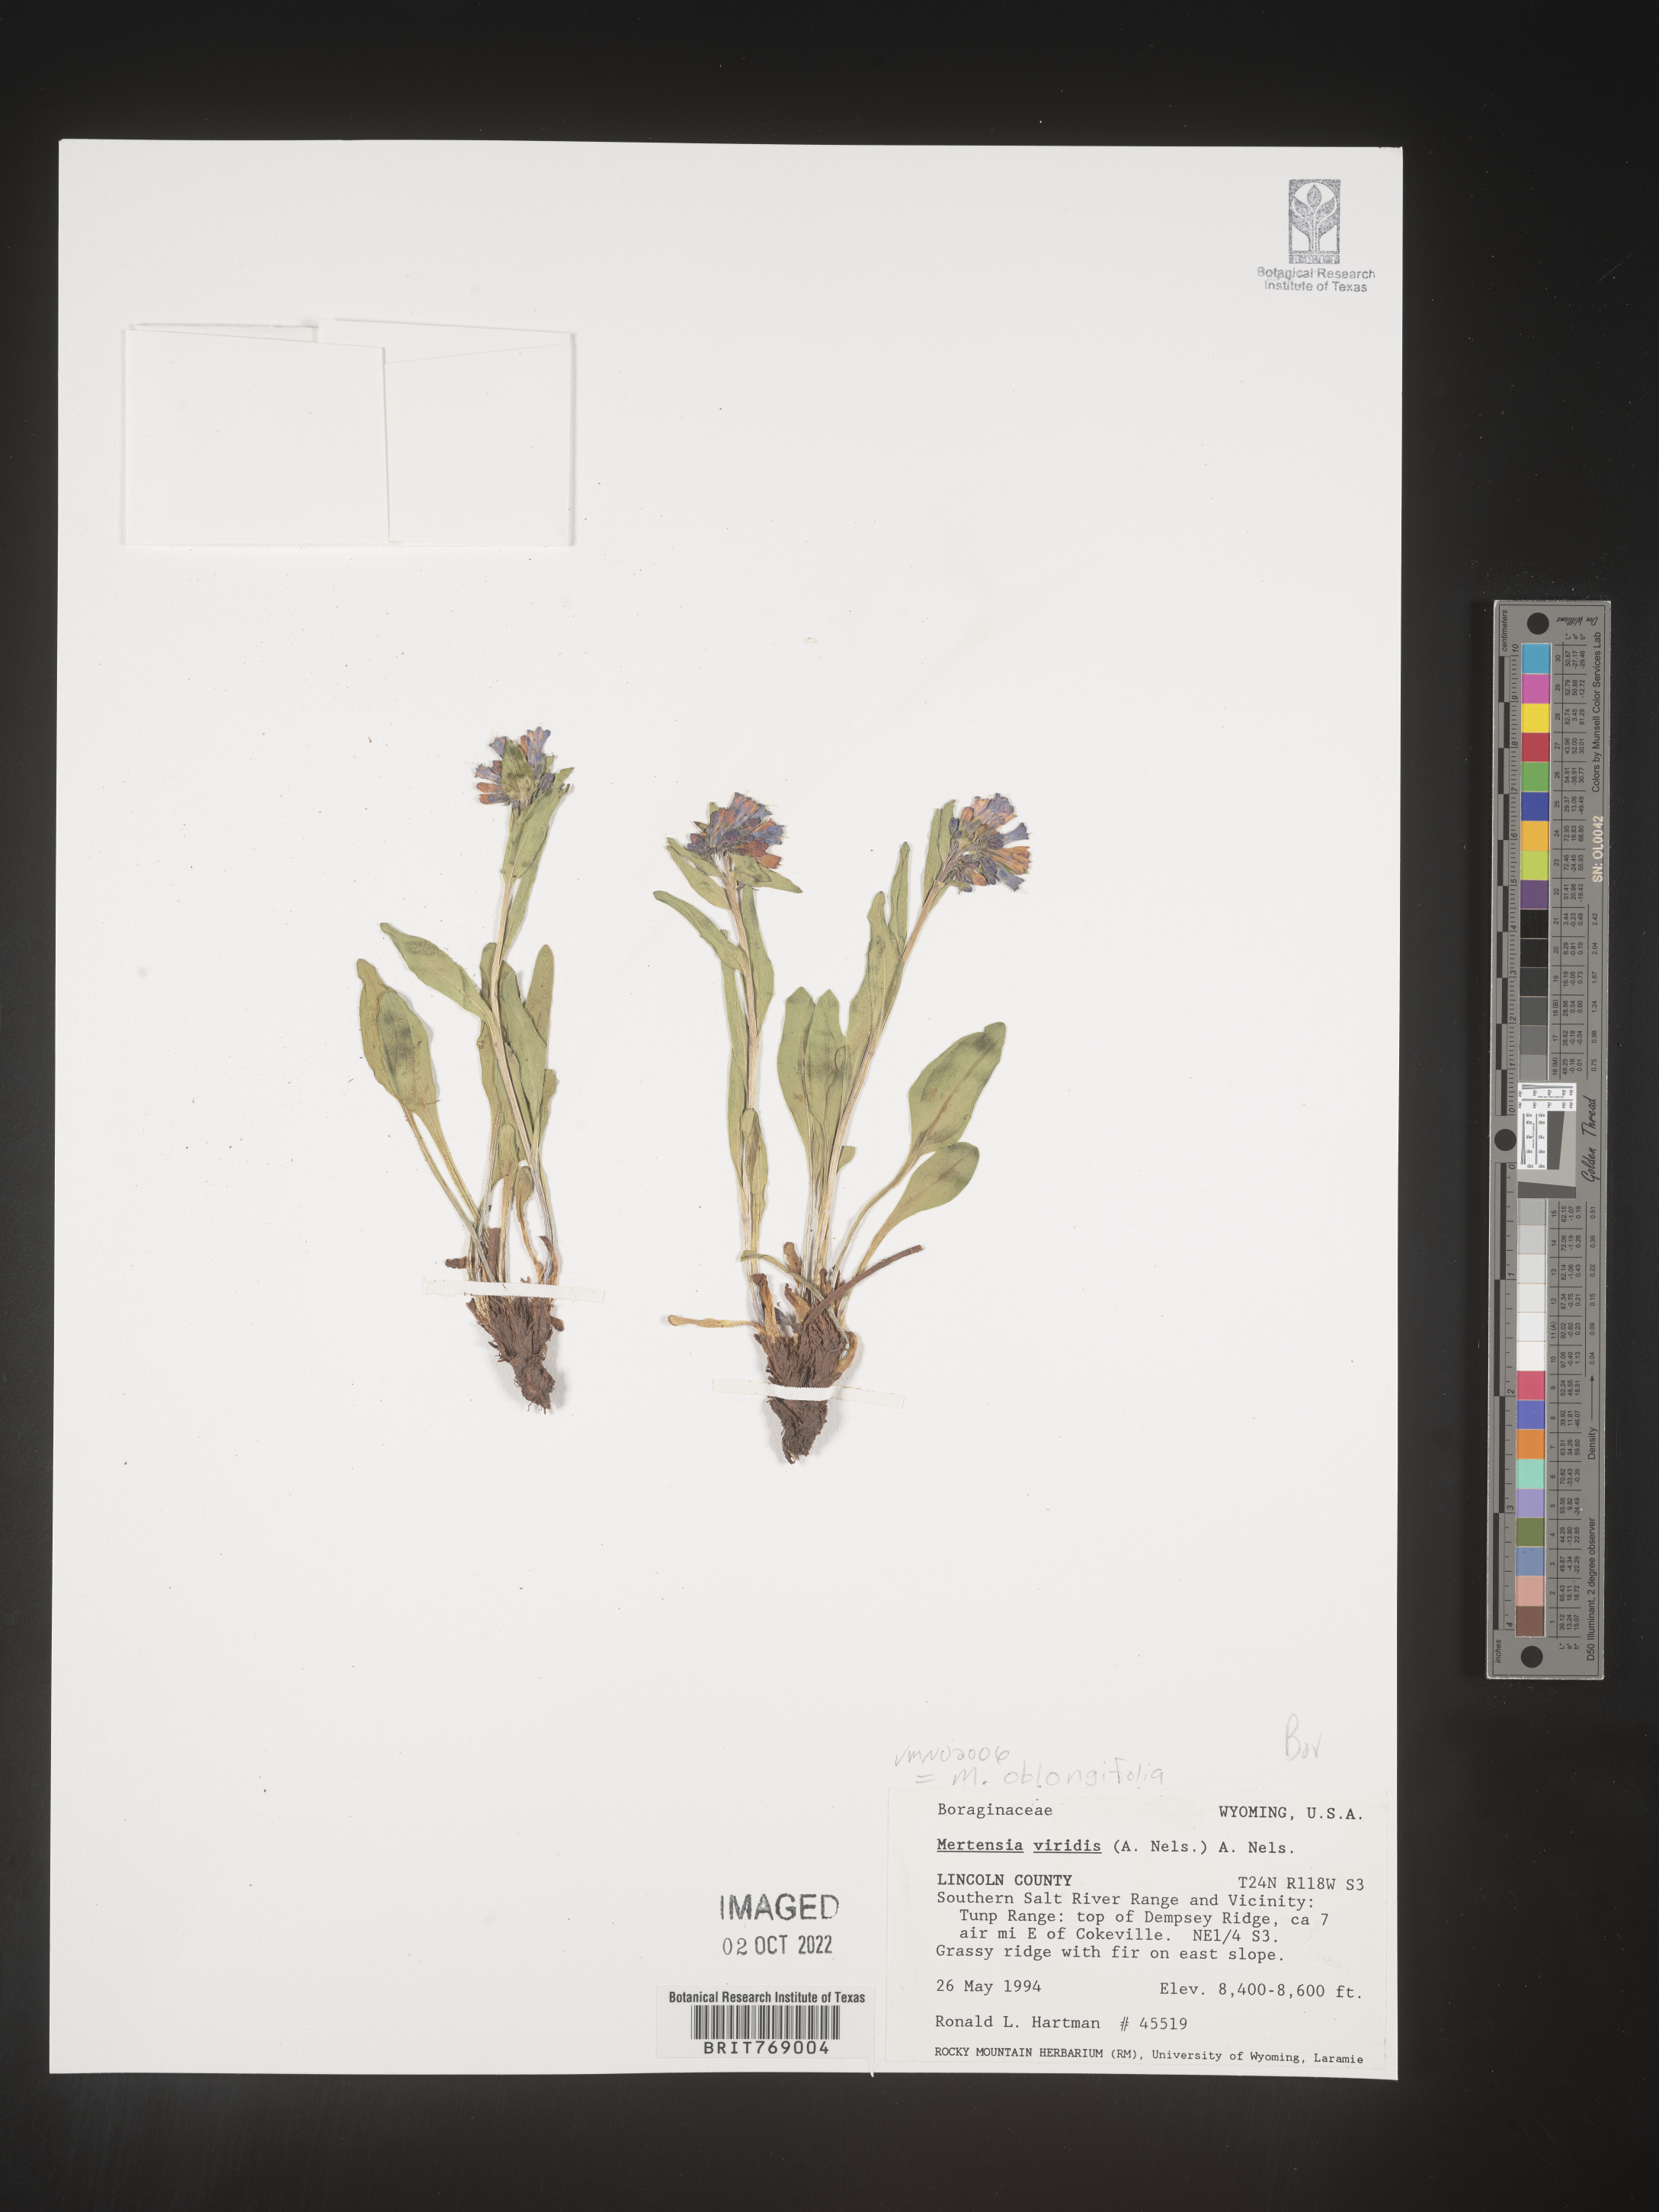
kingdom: Plantae
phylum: Tracheophyta
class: Magnoliopsida
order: Boraginales
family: Boraginaceae
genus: Mertensia
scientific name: Mertensia
